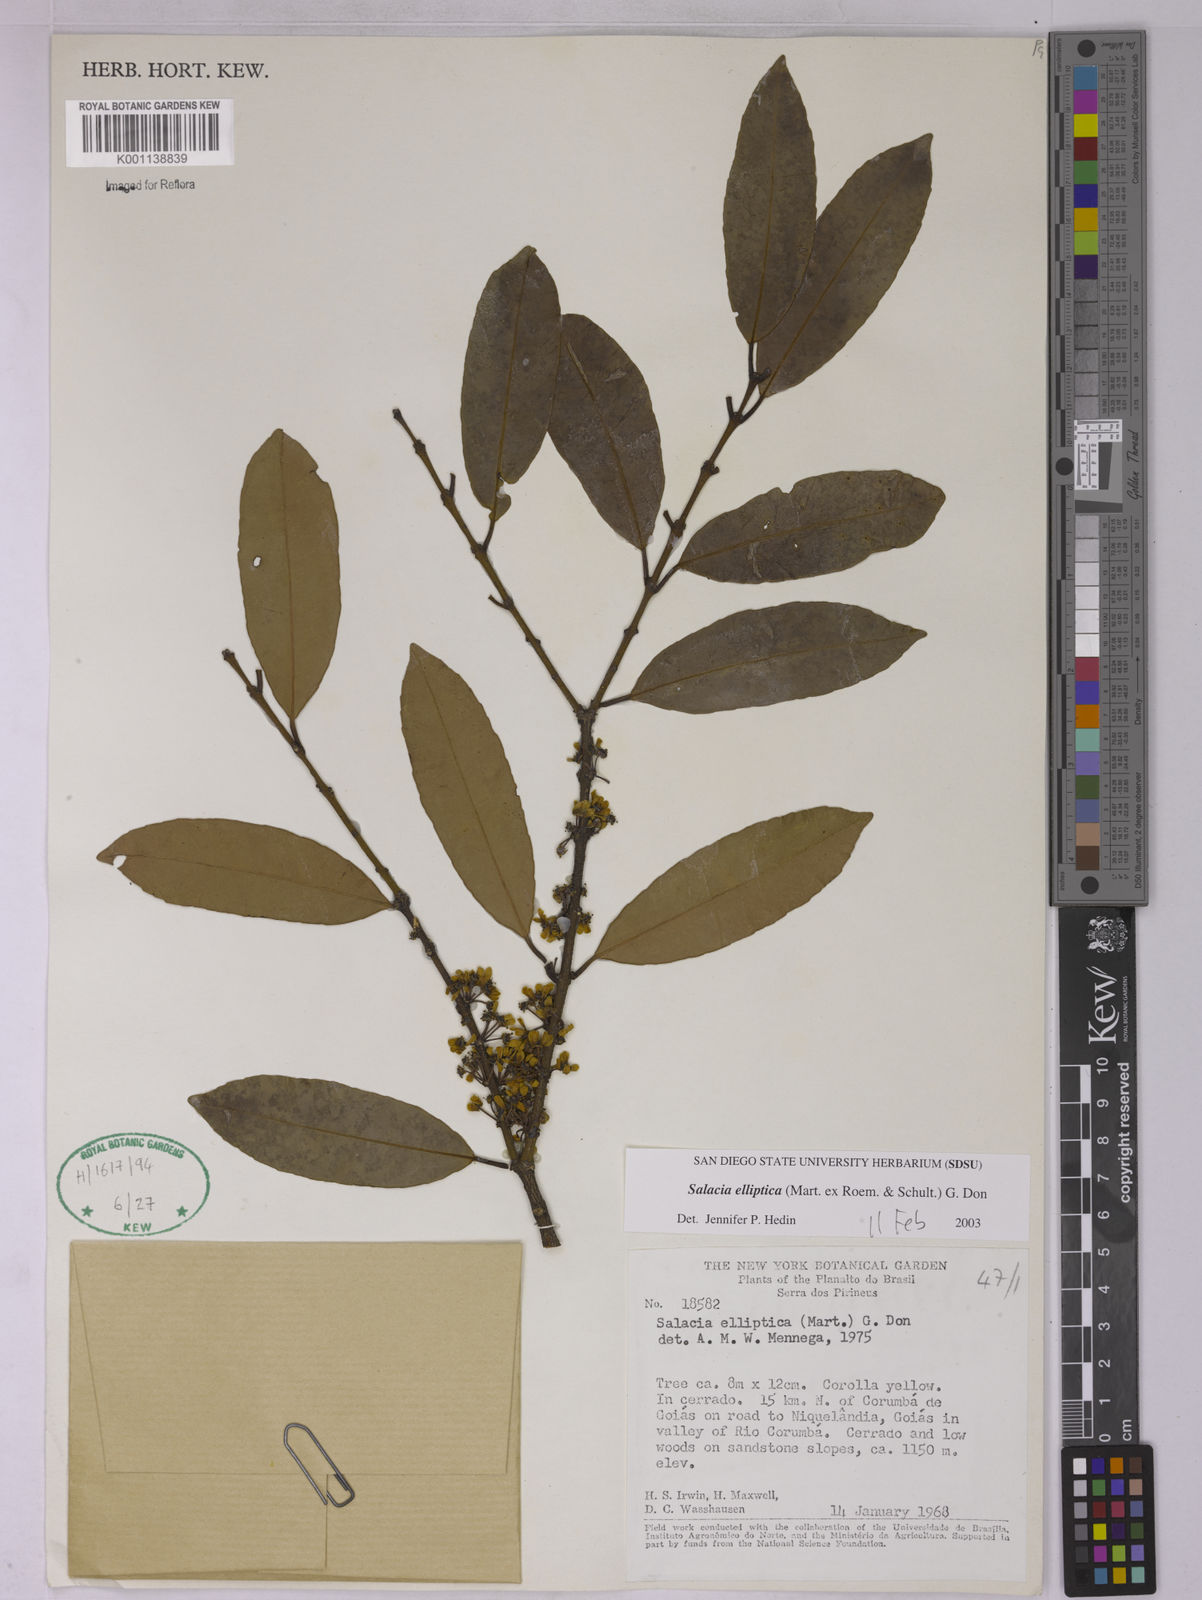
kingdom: Plantae
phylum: Tracheophyta
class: Magnoliopsida
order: Celastrales
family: Celastraceae
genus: Salacia
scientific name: Salacia elliptica
